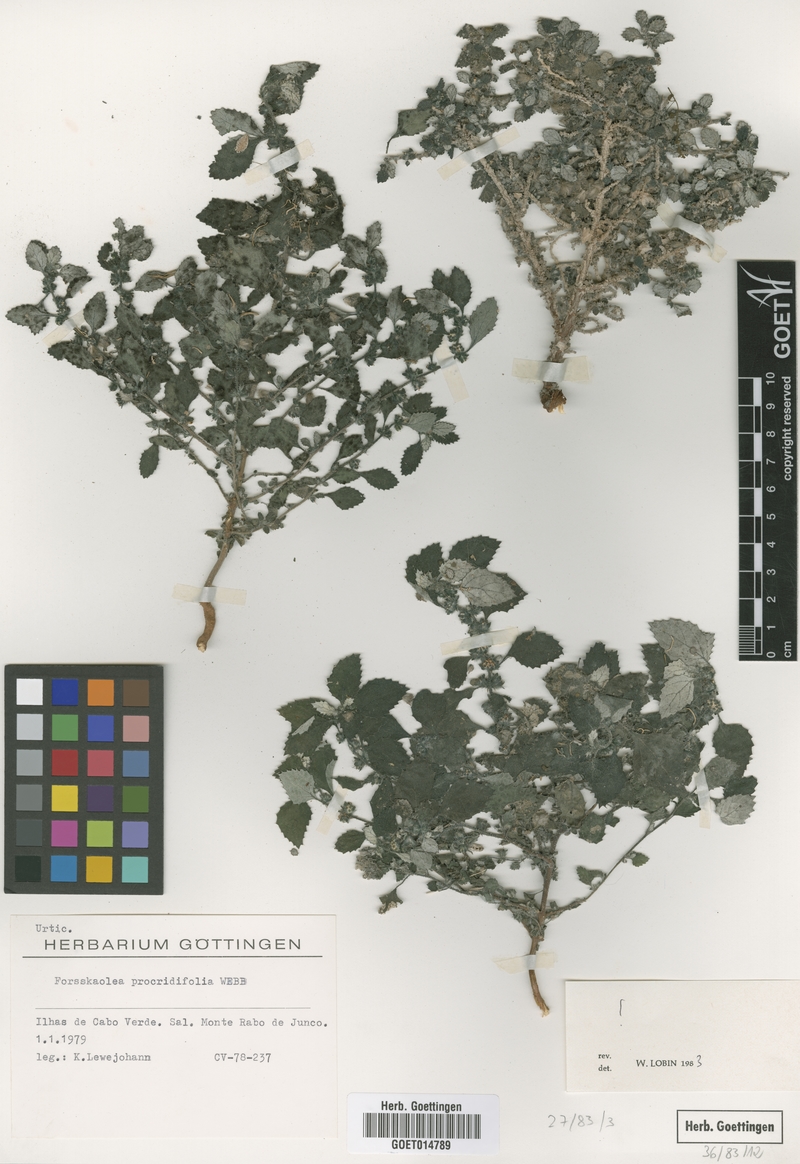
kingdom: Plantae
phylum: Tracheophyta
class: Magnoliopsida
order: Rosales
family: Urticaceae
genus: Forsskaolea
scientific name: Forsskaolea procridifolia
